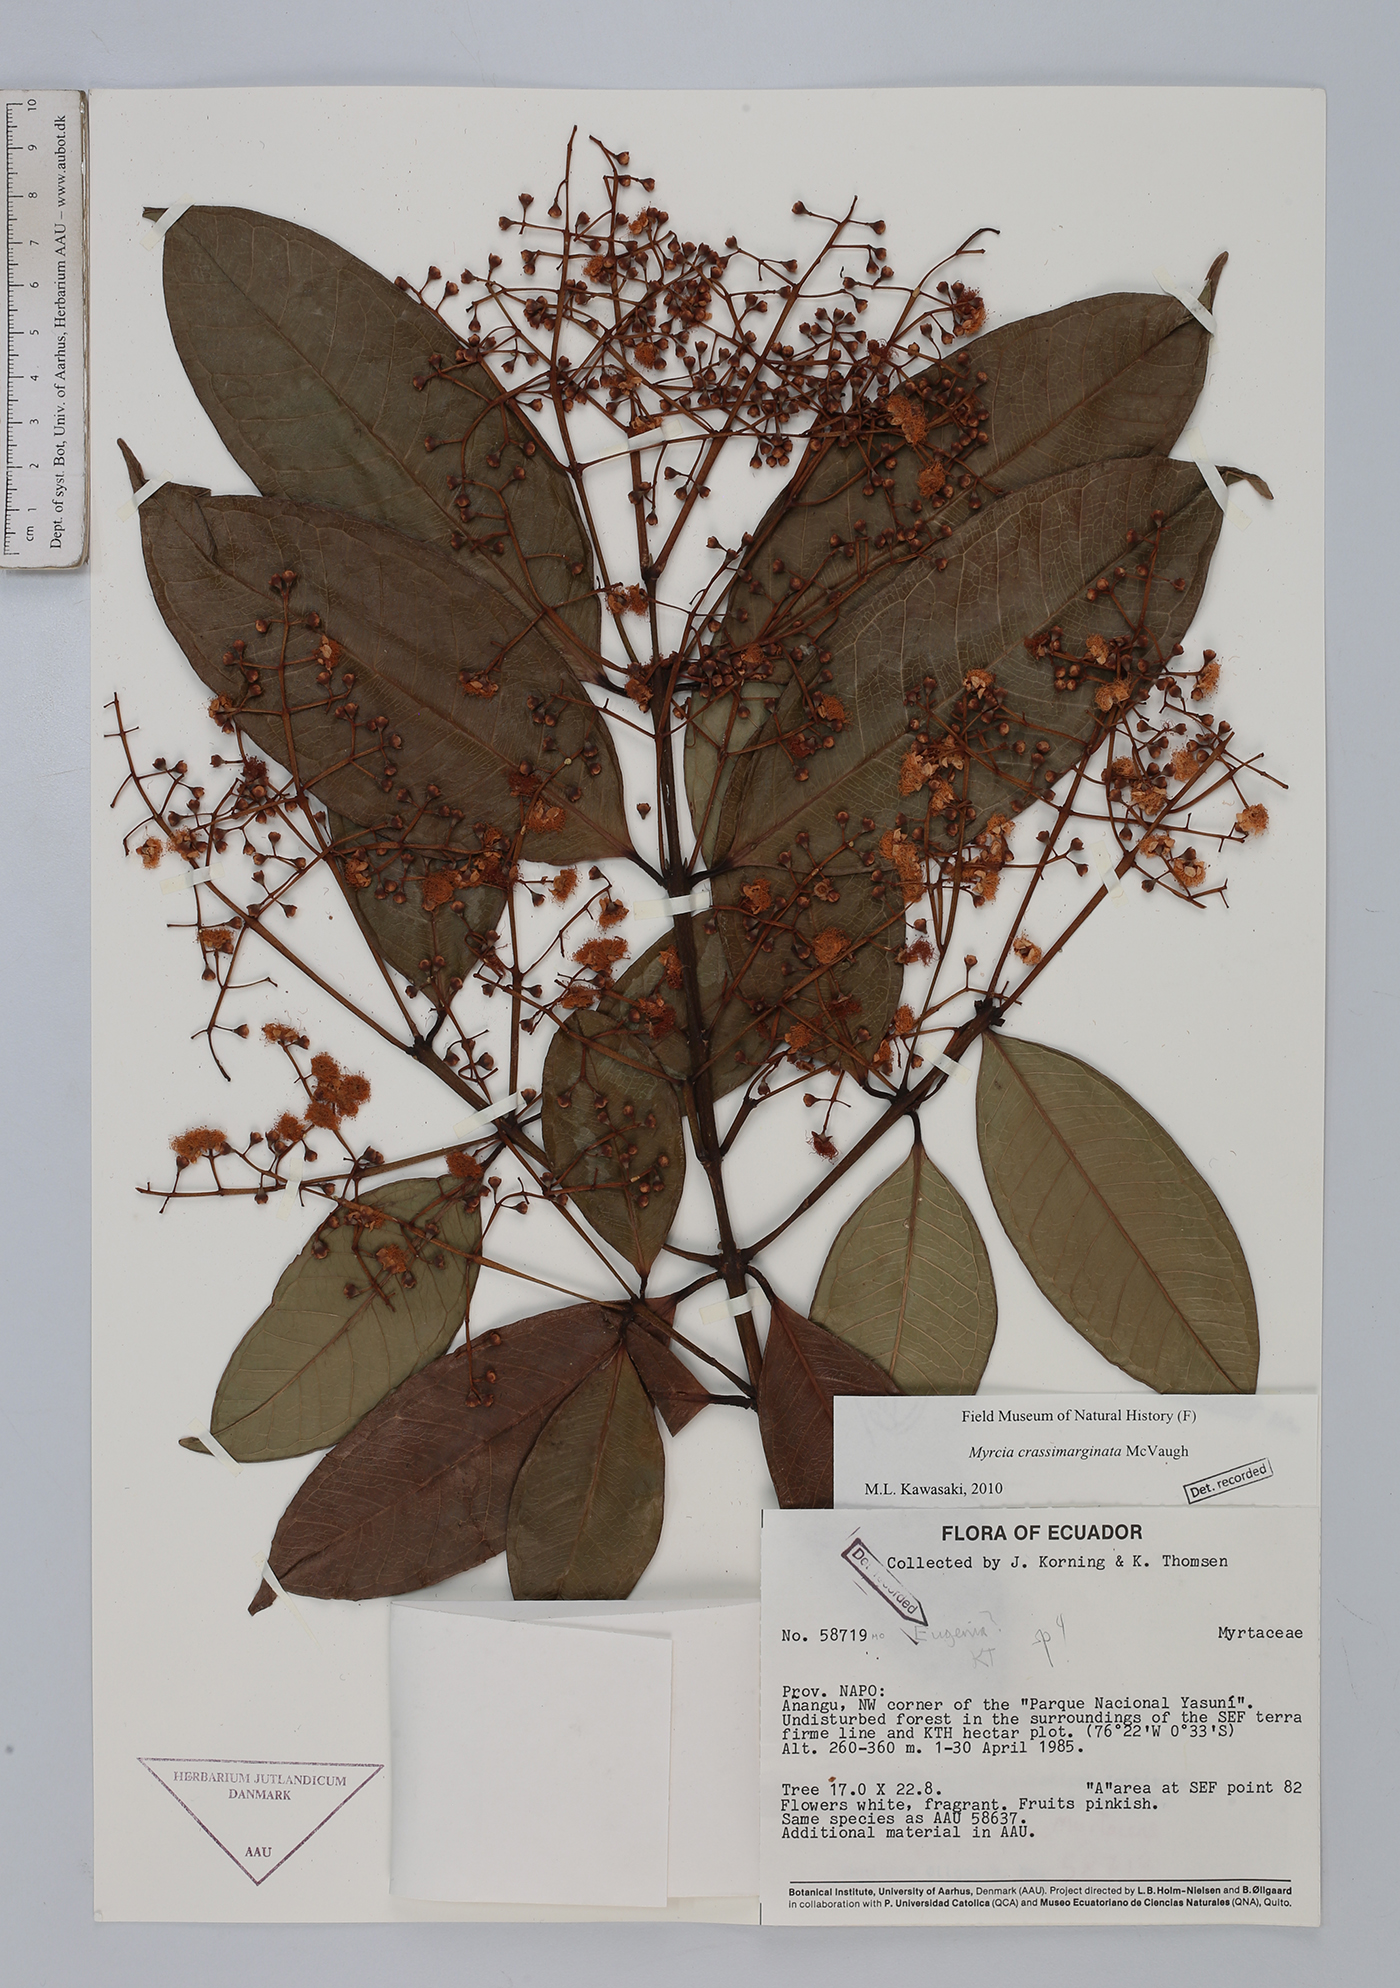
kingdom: Plantae
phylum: Tracheophyta
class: Magnoliopsida
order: Myrtales
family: Myrtaceae
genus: Myrcia
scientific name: Myrcia crassimarginata
